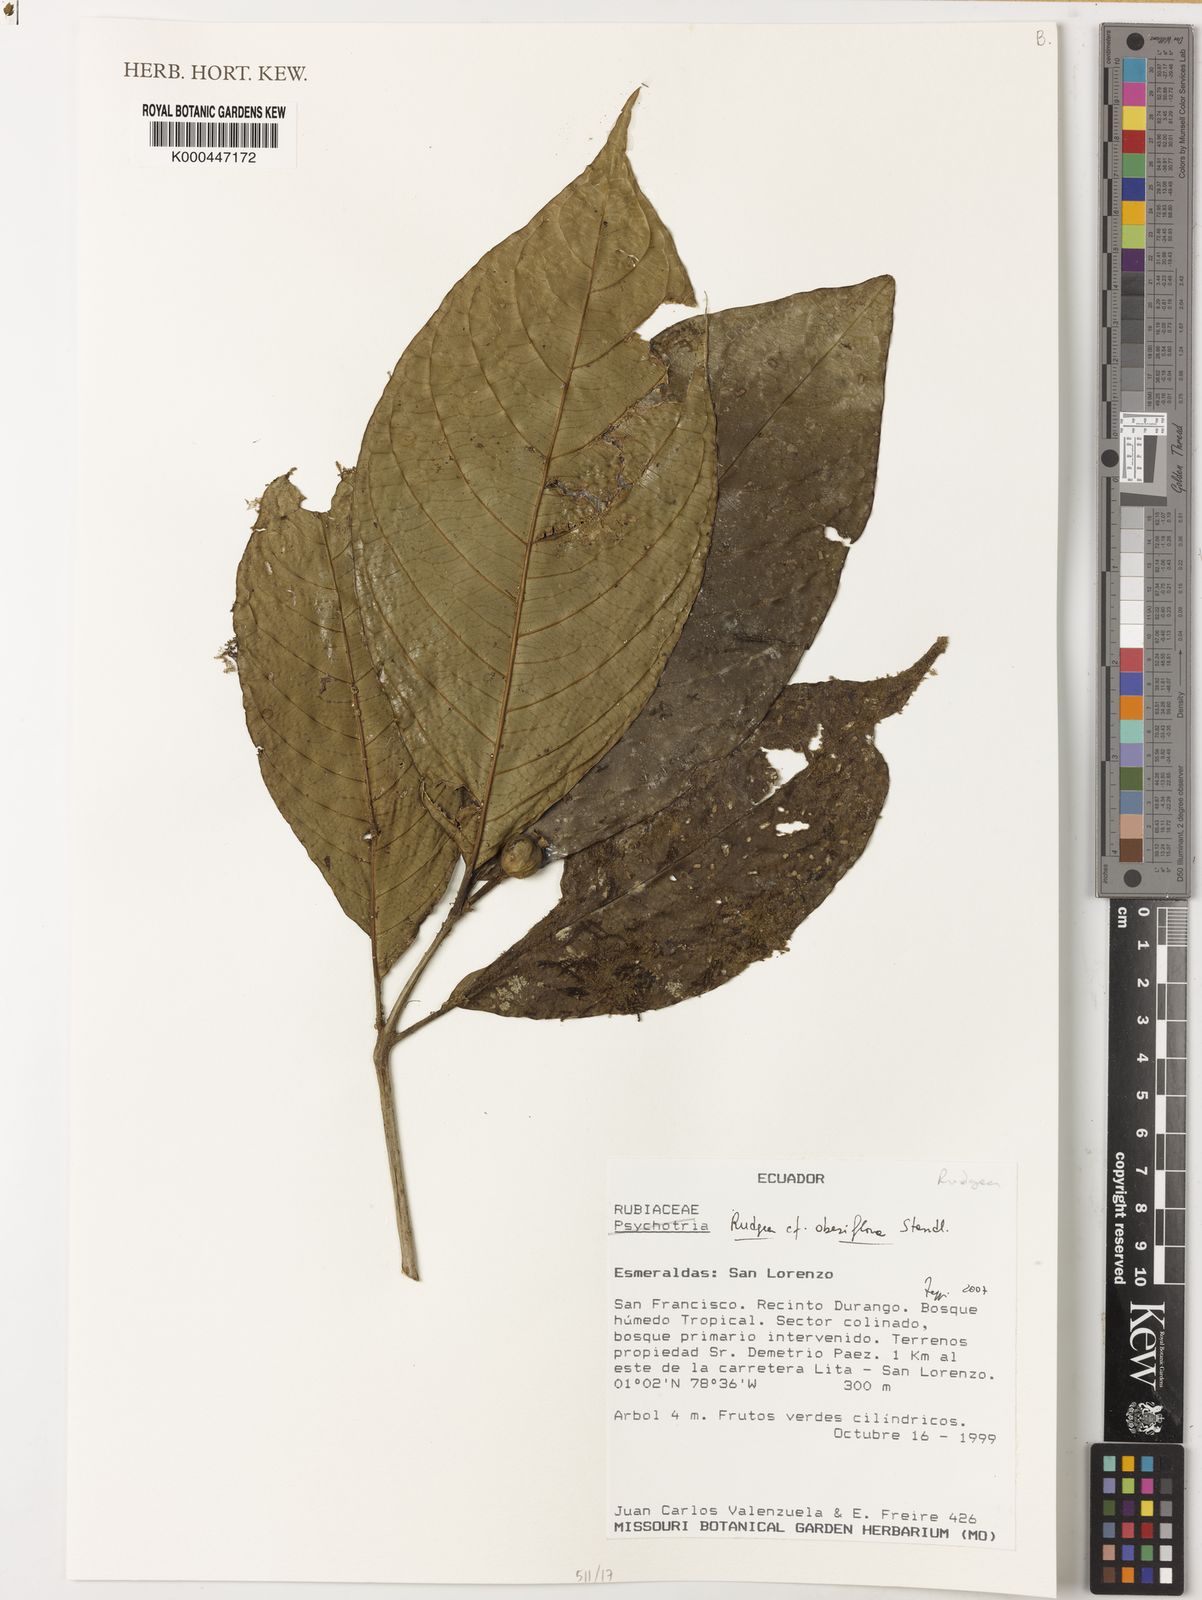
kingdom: Plantae
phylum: Tracheophyta
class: Magnoliopsida
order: Gentianales
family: Rubiaceae
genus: Rudgea
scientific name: Rudgea obesiflora
